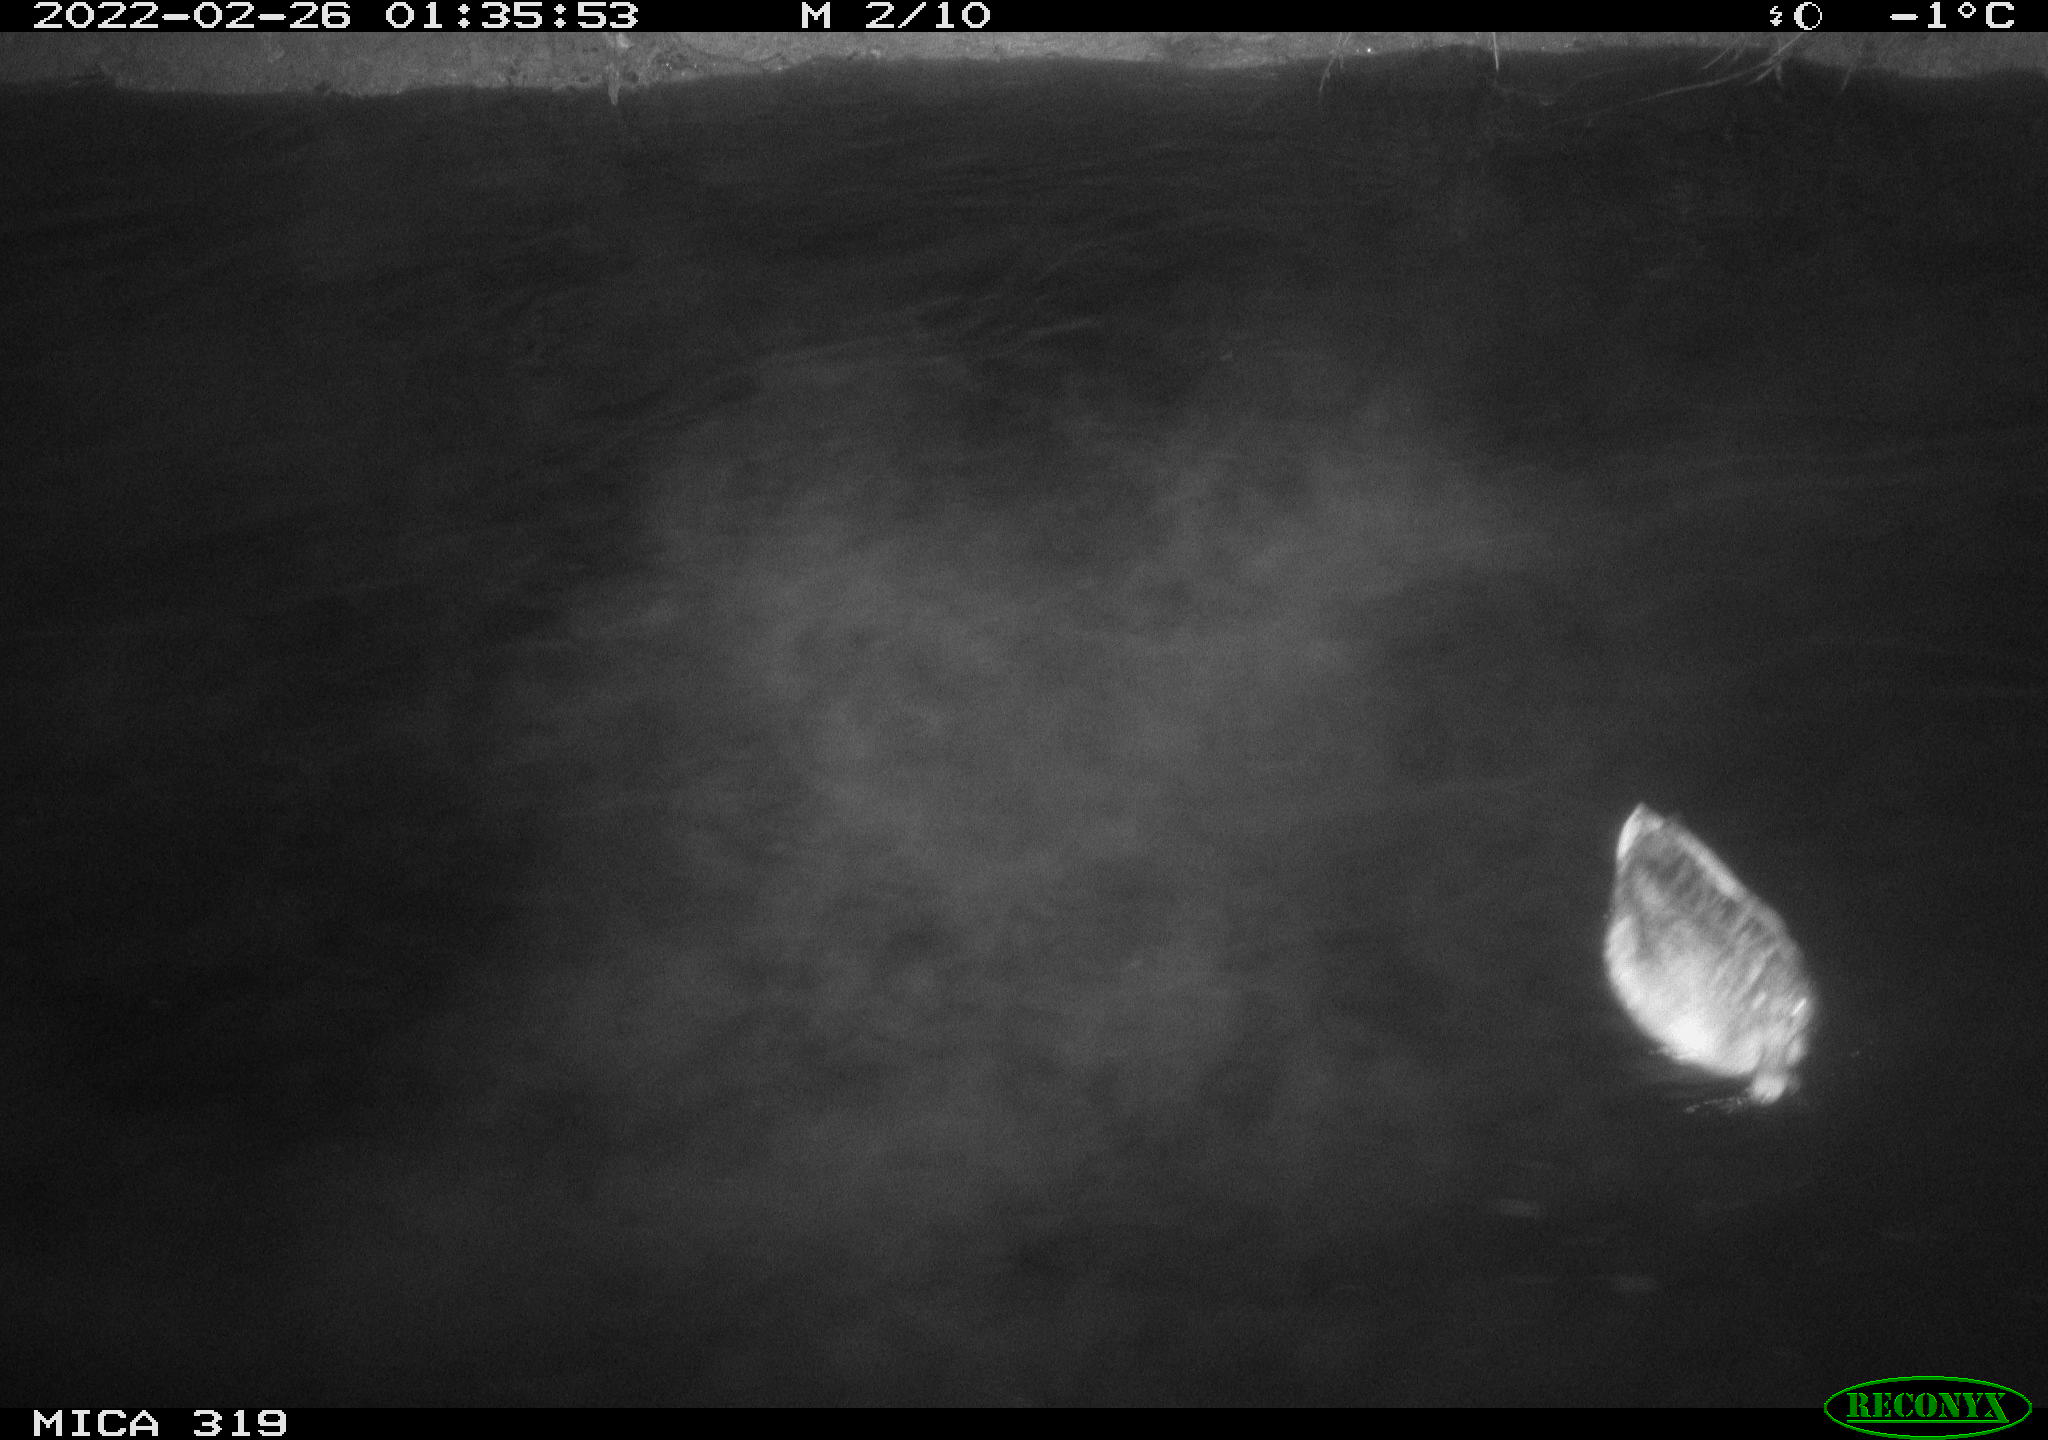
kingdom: Animalia
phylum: Chordata
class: Aves
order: Anseriformes
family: Anatidae
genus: Anas
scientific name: Anas platyrhynchos
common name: Mallard
